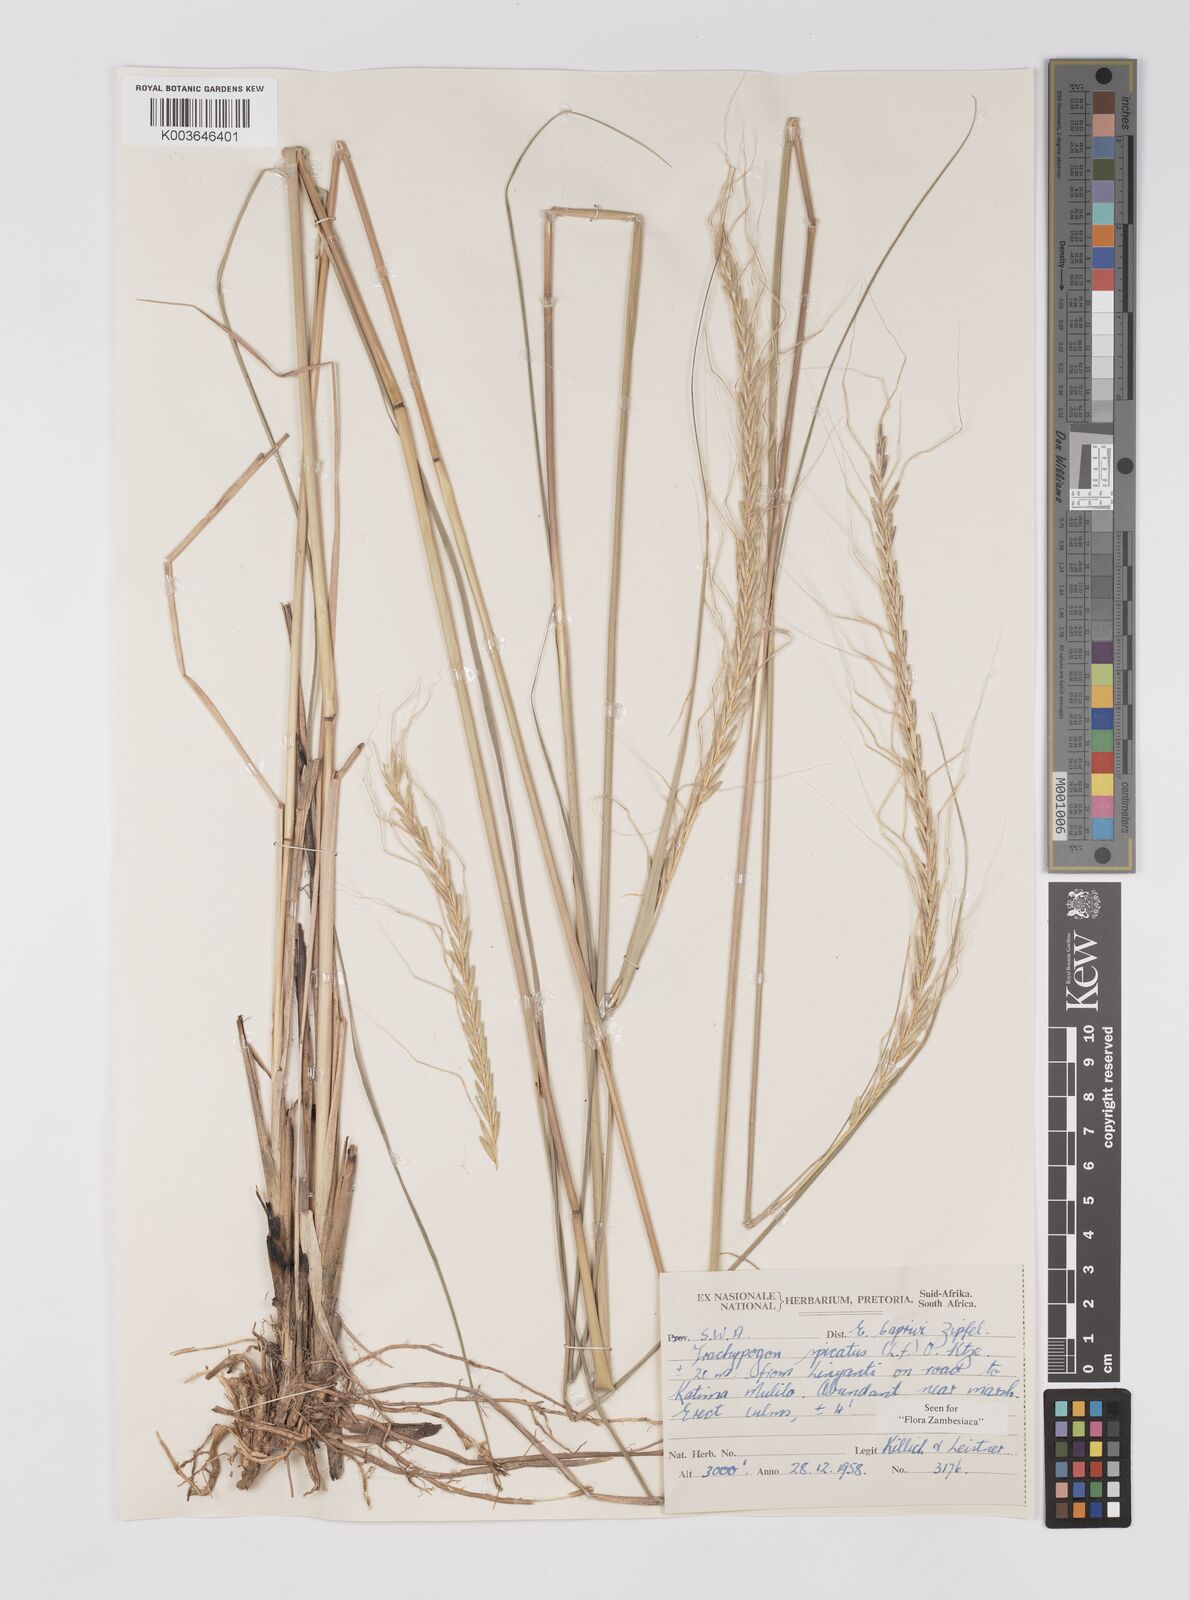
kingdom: Plantae
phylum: Tracheophyta
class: Liliopsida
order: Poales
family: Poaceae
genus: Trachypogon
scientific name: Trachypogon spicatus
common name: Crinkle-awn
